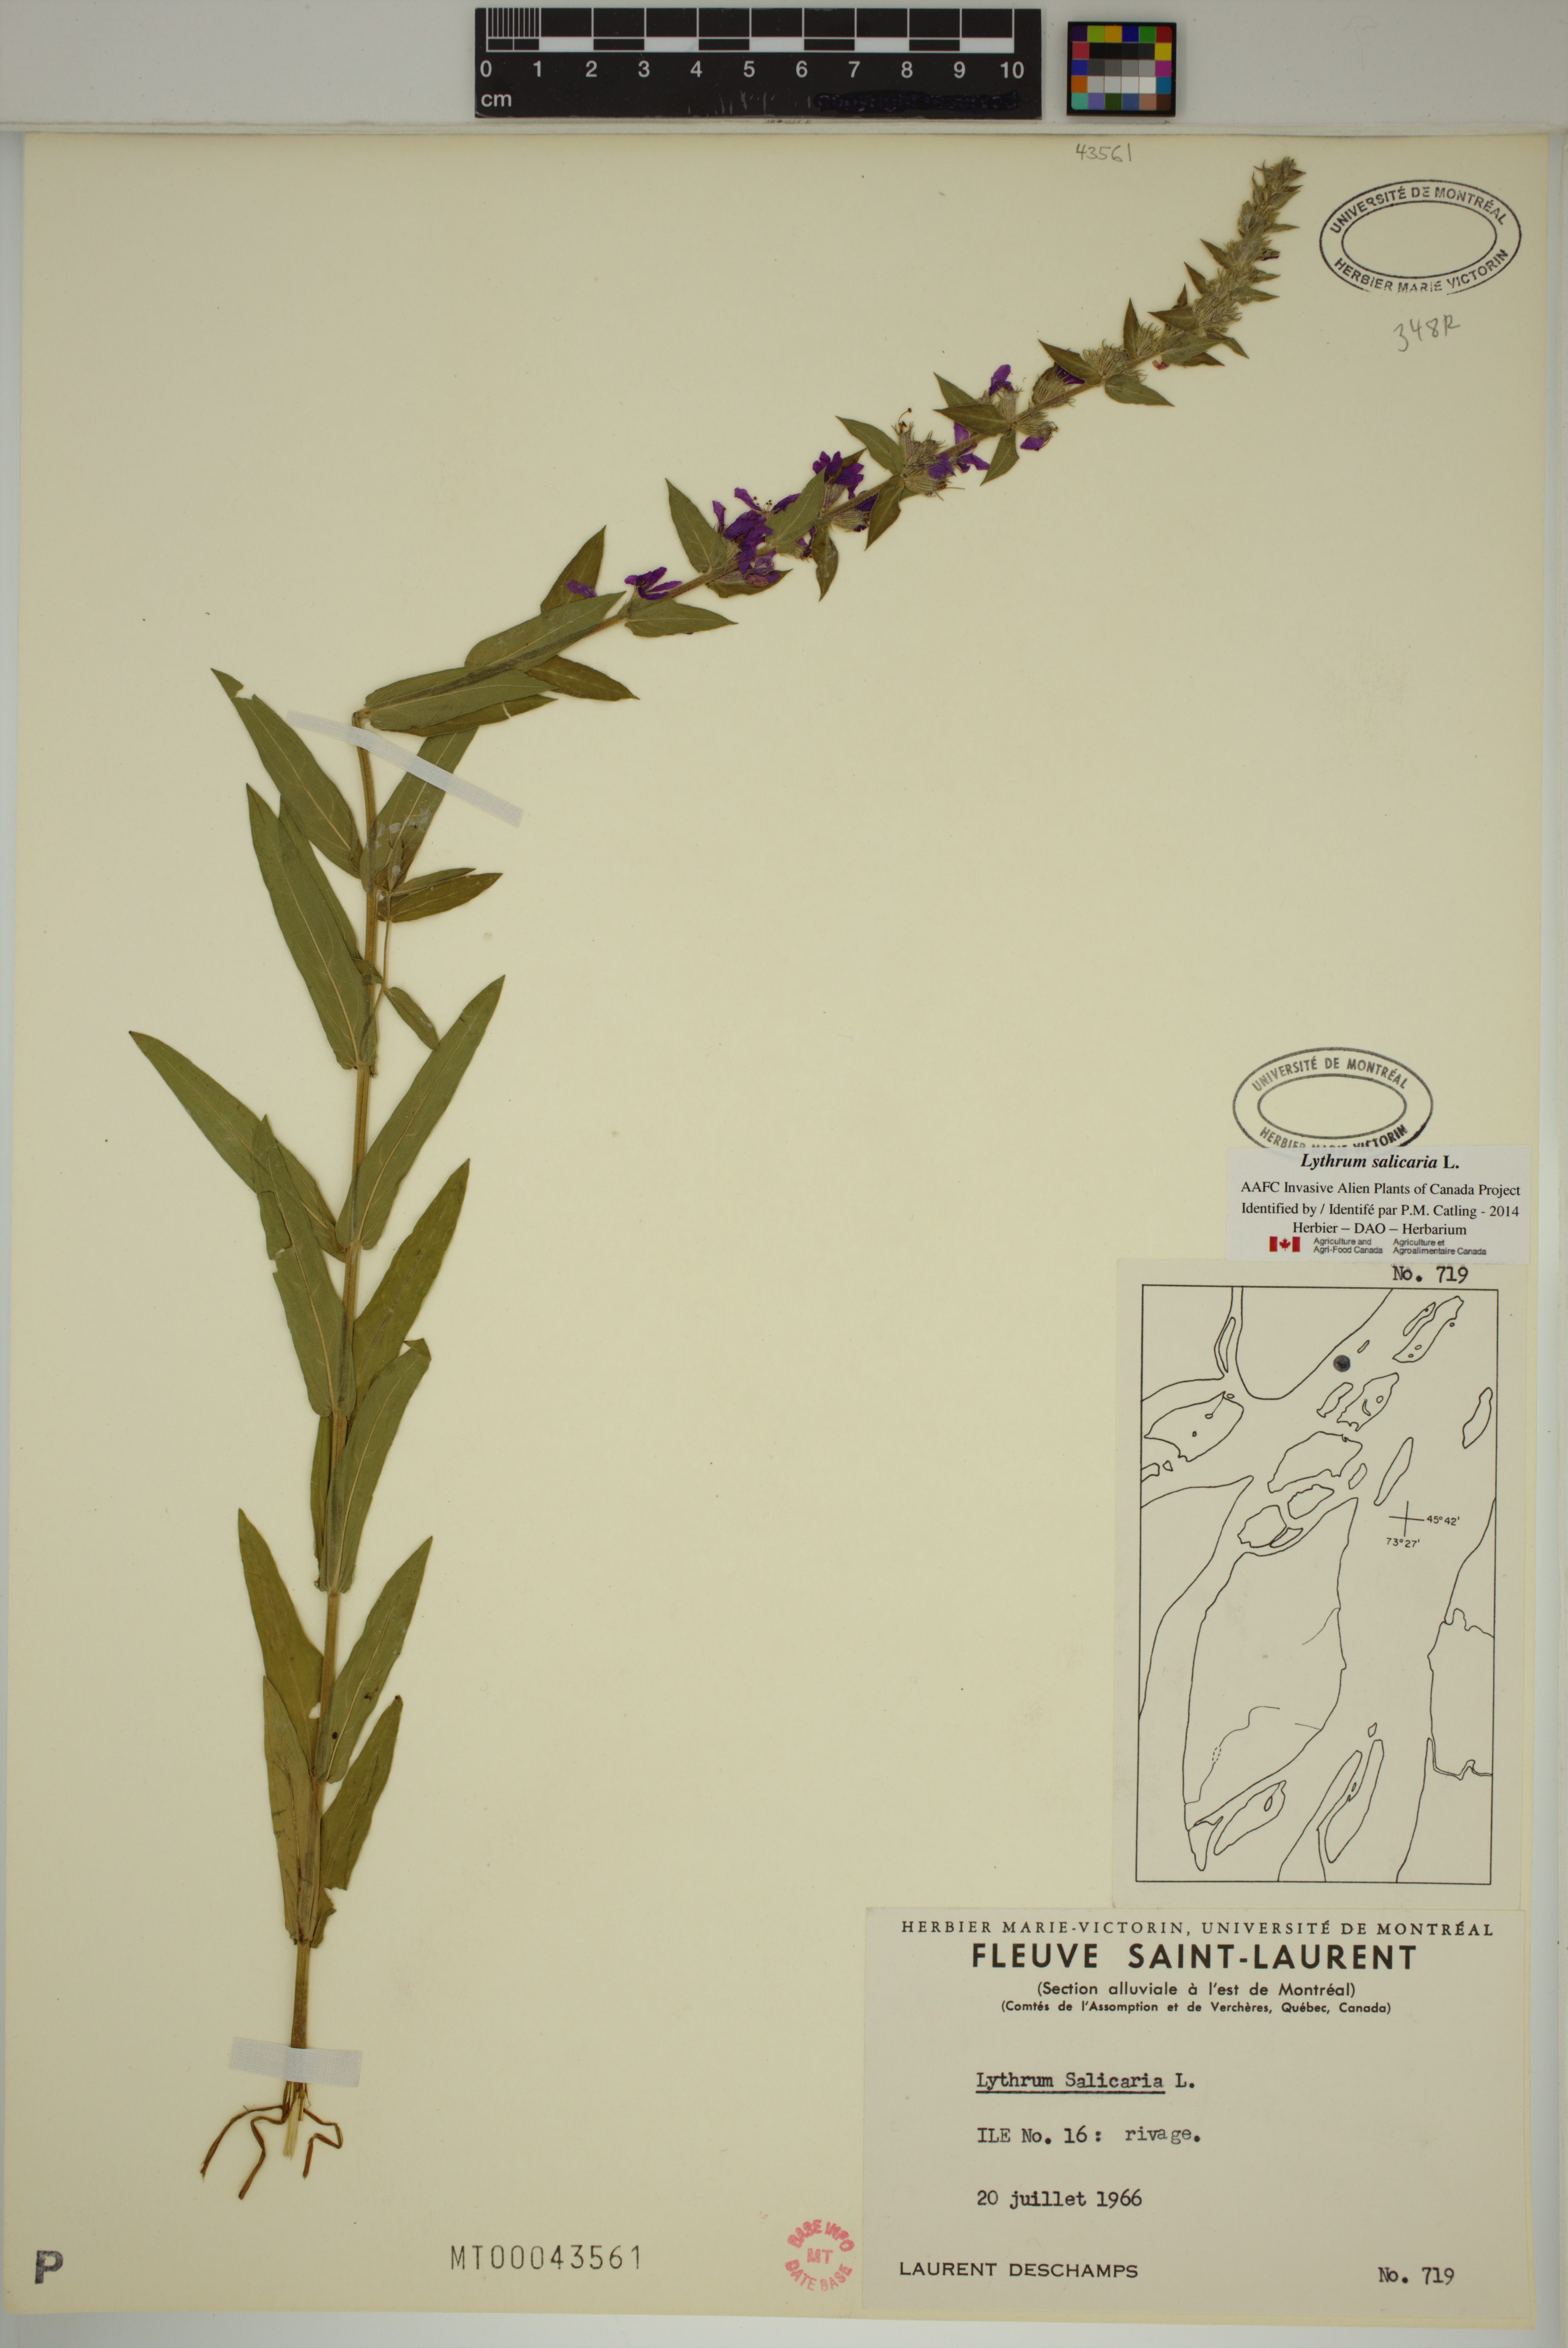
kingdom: Plantae
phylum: Tracheophyta
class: Magnoliopsida
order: Myrtales
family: Lythraceae
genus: Lythrum
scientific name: Lythrum salicaria
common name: Purple loosestrife
